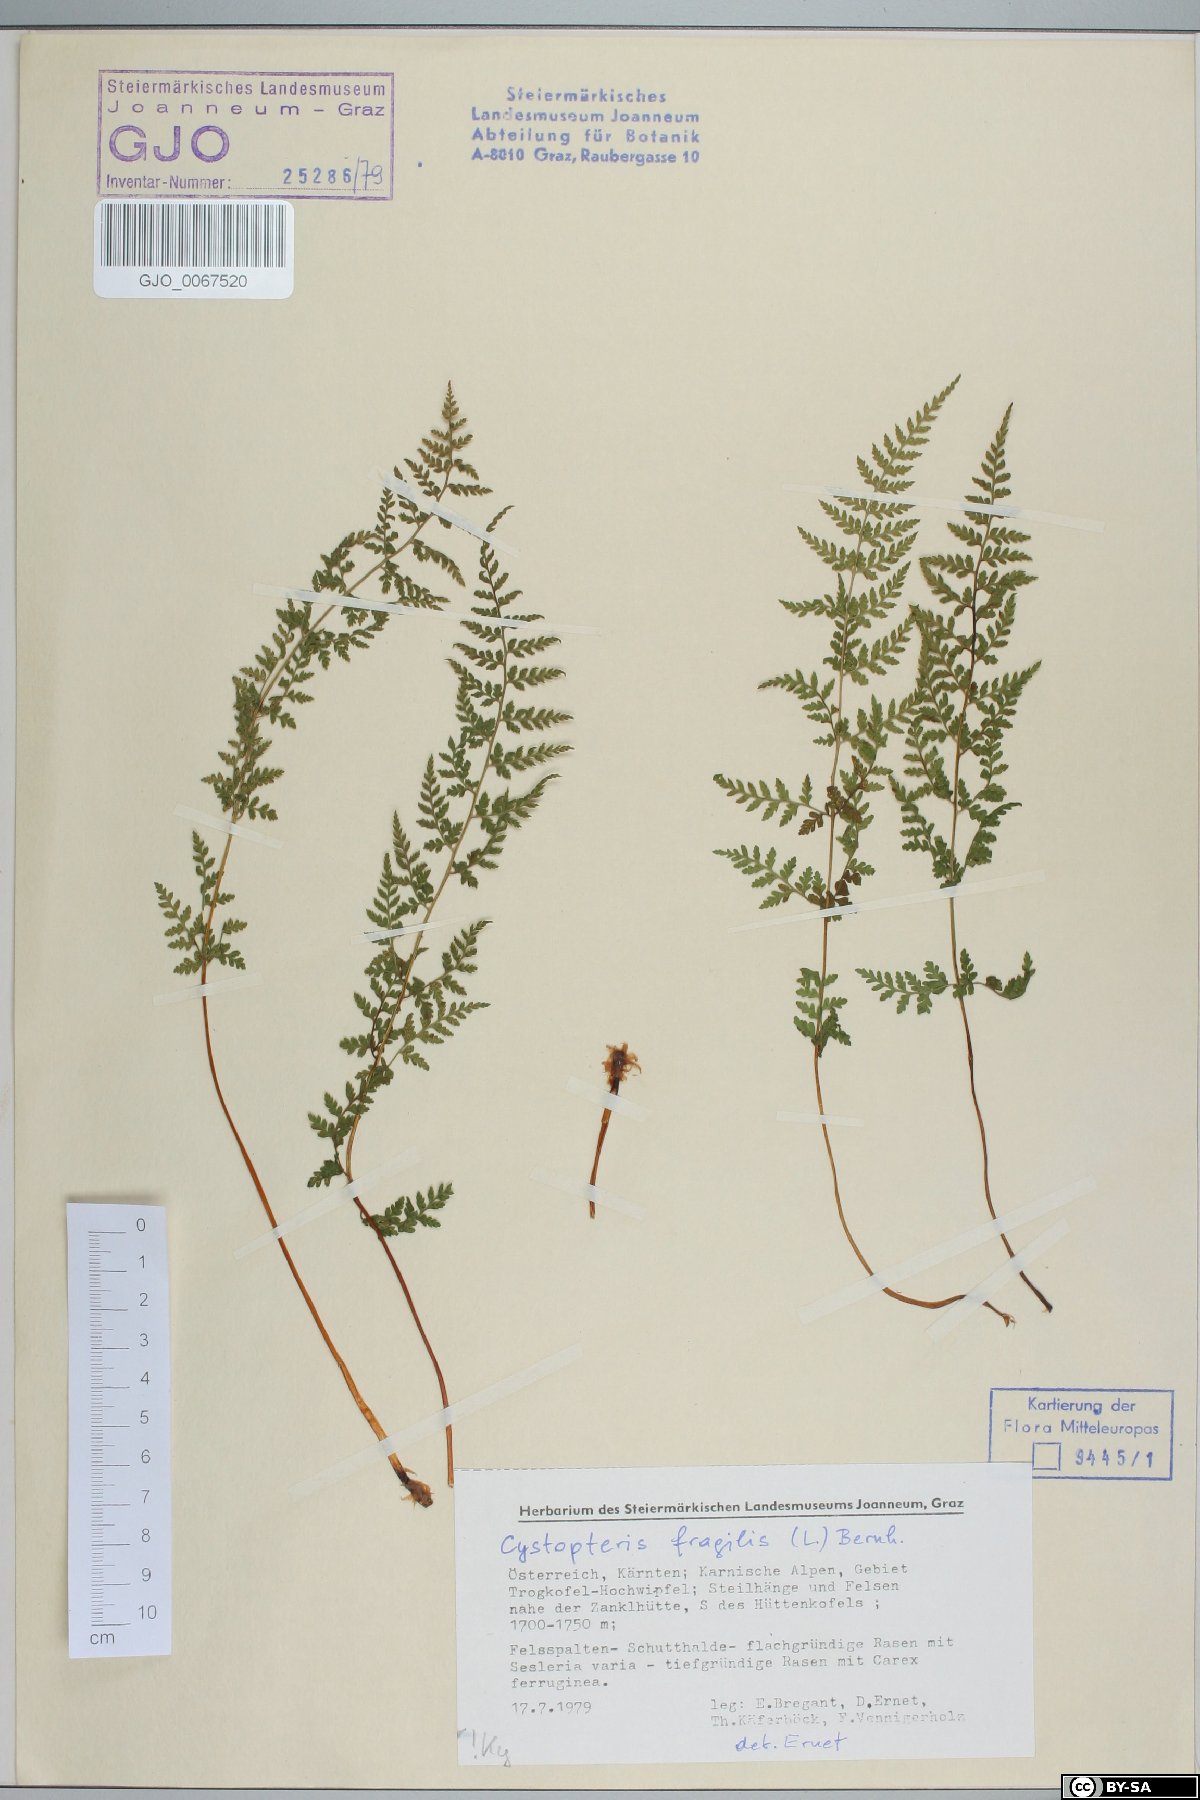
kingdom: Plantae
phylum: Tracheophyta
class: Polypodiopsida
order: Polypodiales
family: Cystopteridaceae
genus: Cystopteris
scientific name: Cystopteris fragilis
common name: Brittle bladder fern
